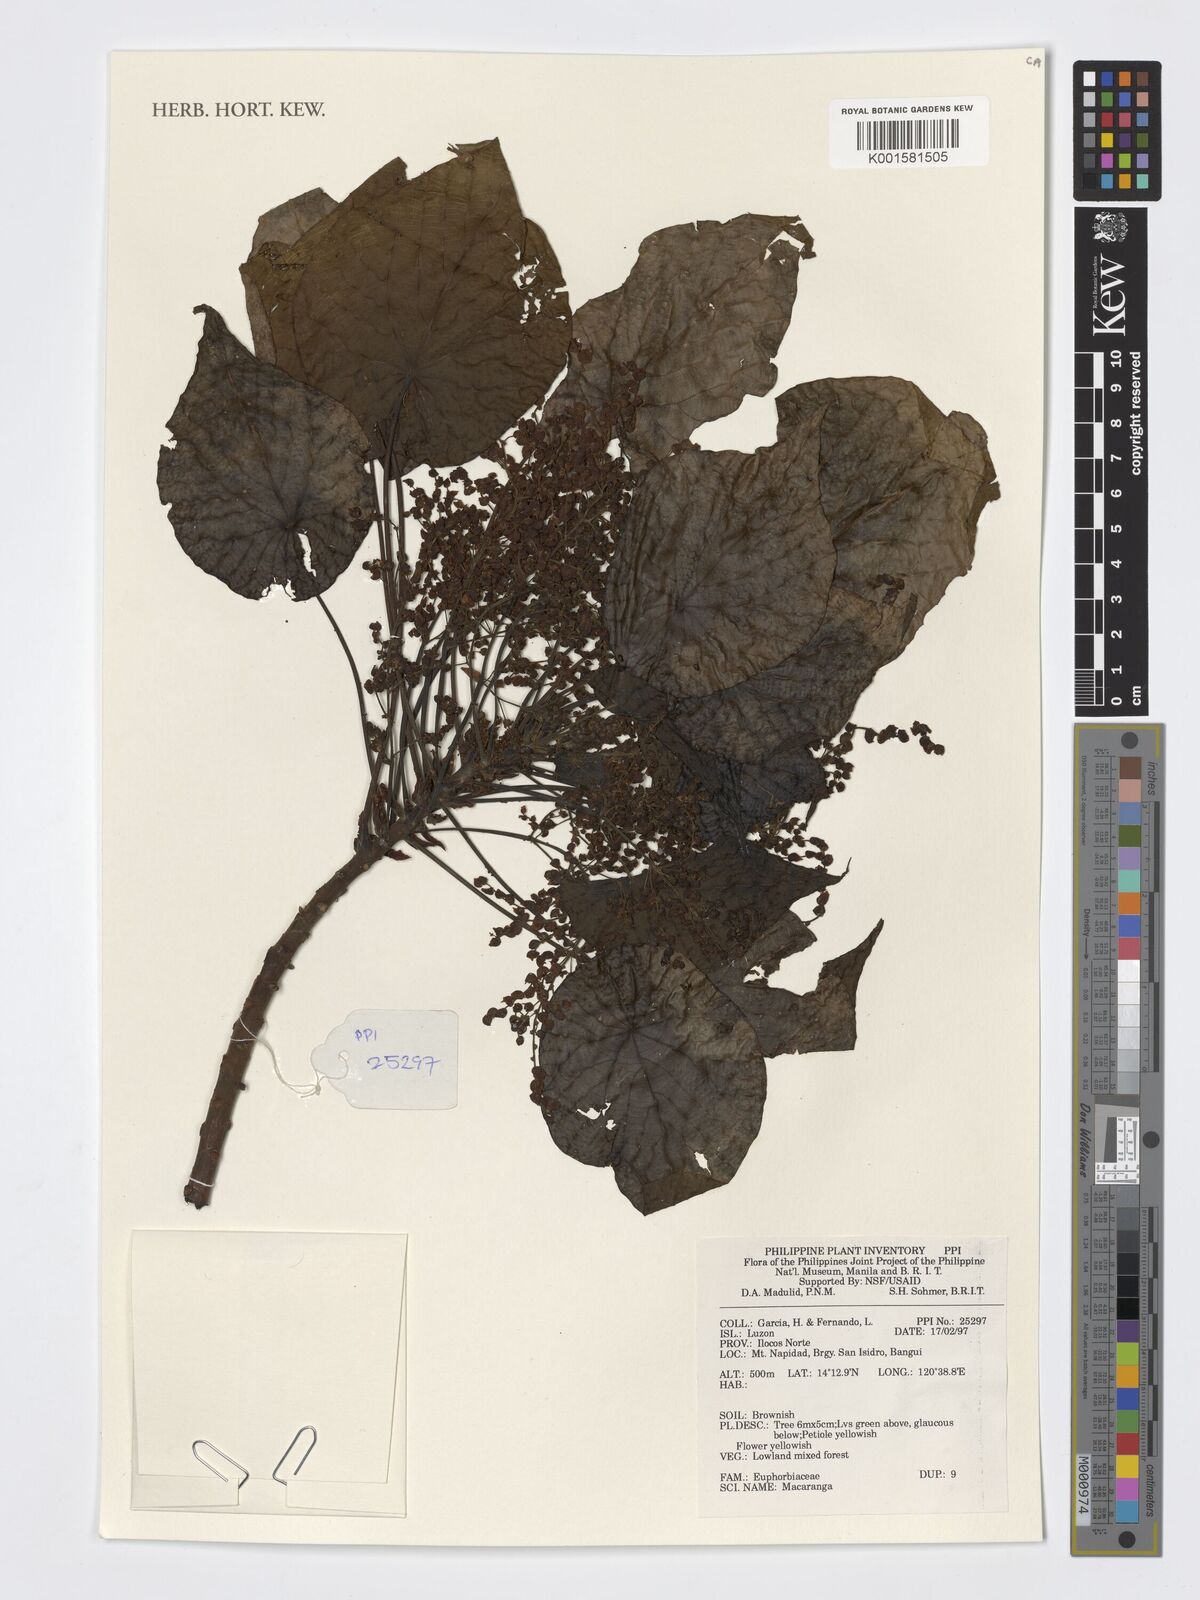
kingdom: Plantae
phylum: Tracheophyta
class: Magnoliopsida
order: Malpighiales
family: Euphorbiaceae
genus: Macaranga
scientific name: Macaranga
